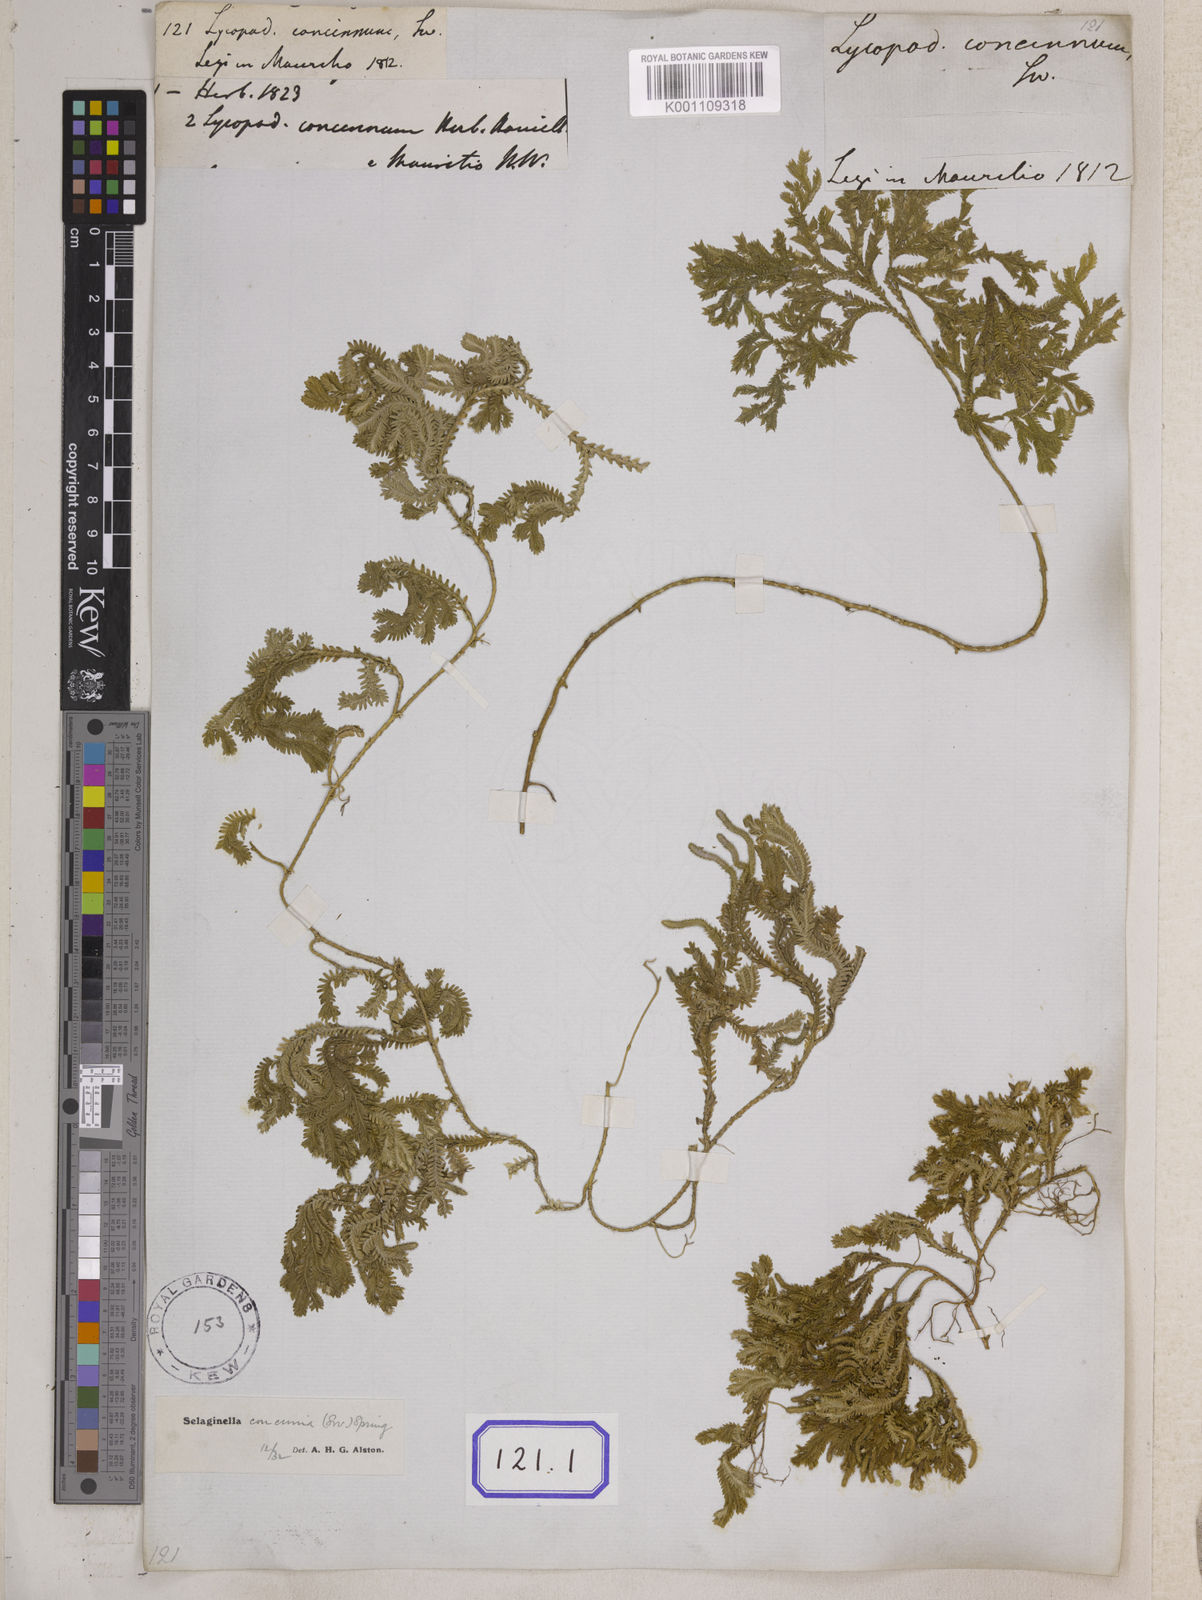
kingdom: Plantae
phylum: Tracheophyta
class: Lycopodiopsida
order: Selaginellales
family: Selaginellaceae
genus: Selaginella
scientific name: Selaginella concinna
